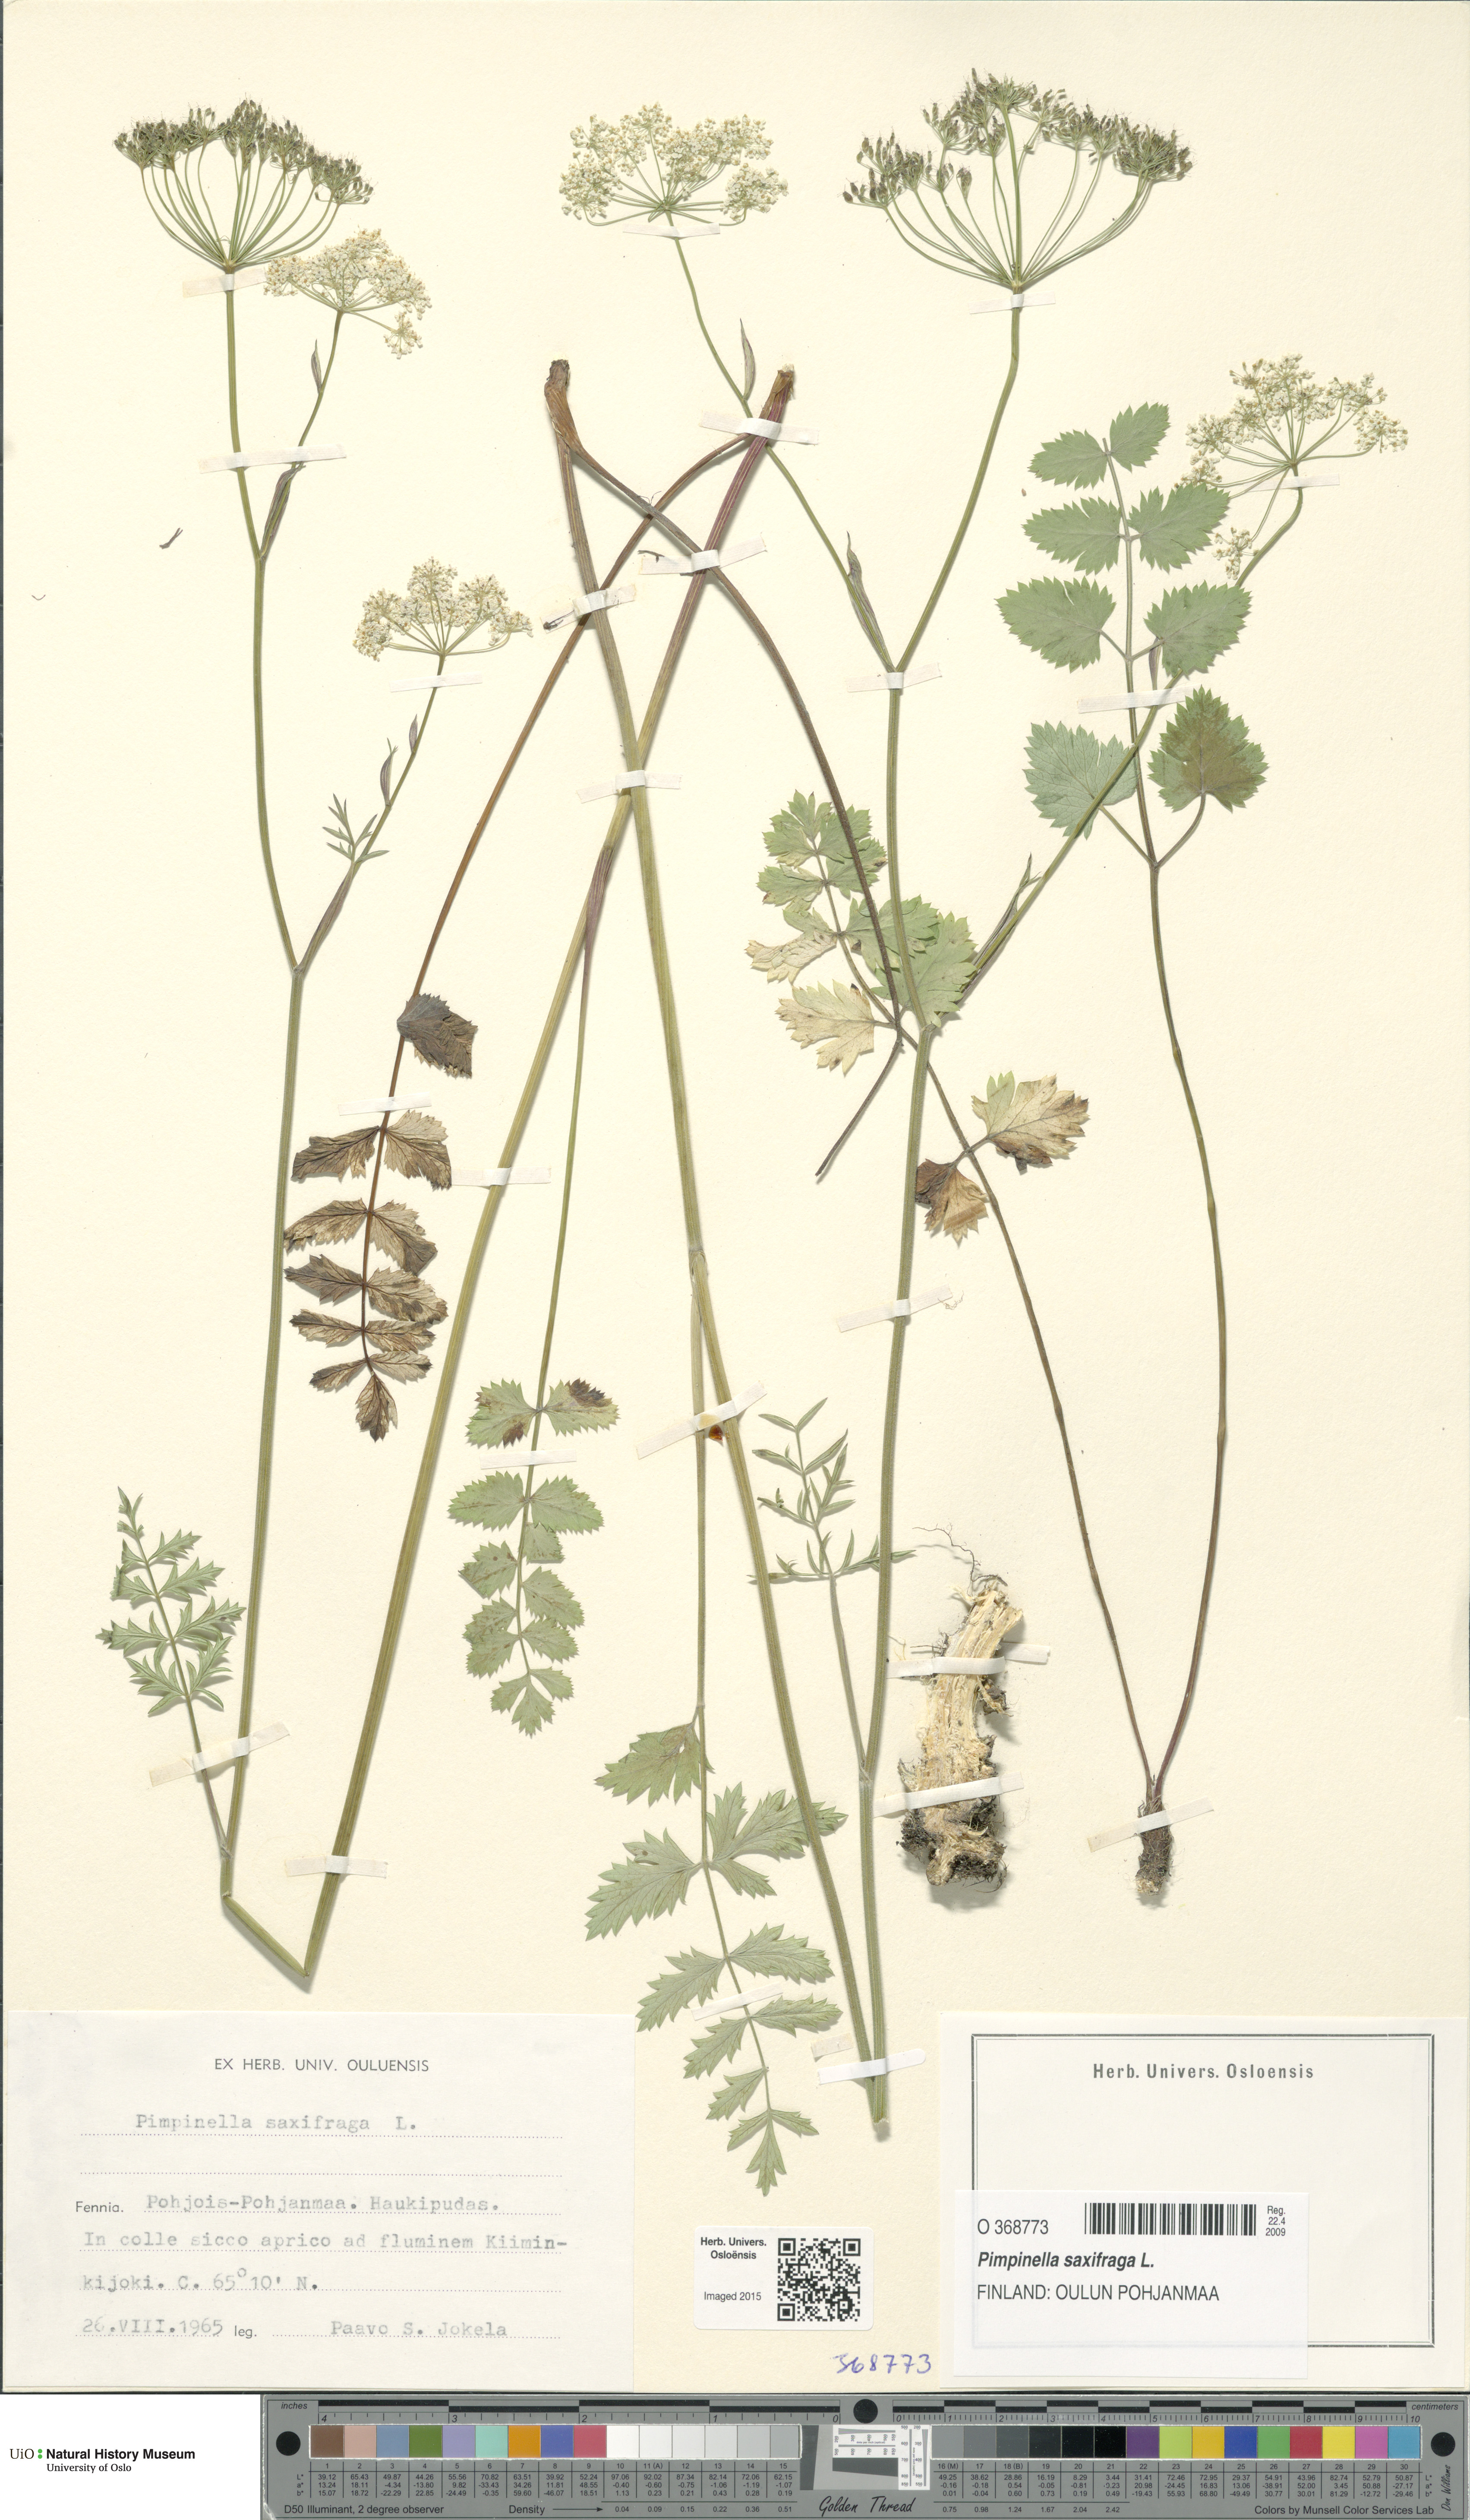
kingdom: Plantae
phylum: Tracheophyta
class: Magnoliopsida
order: Apiales
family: Apiaceae
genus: Pimpinella
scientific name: Pimpinella saxifraga
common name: Burnet-saxifrage
